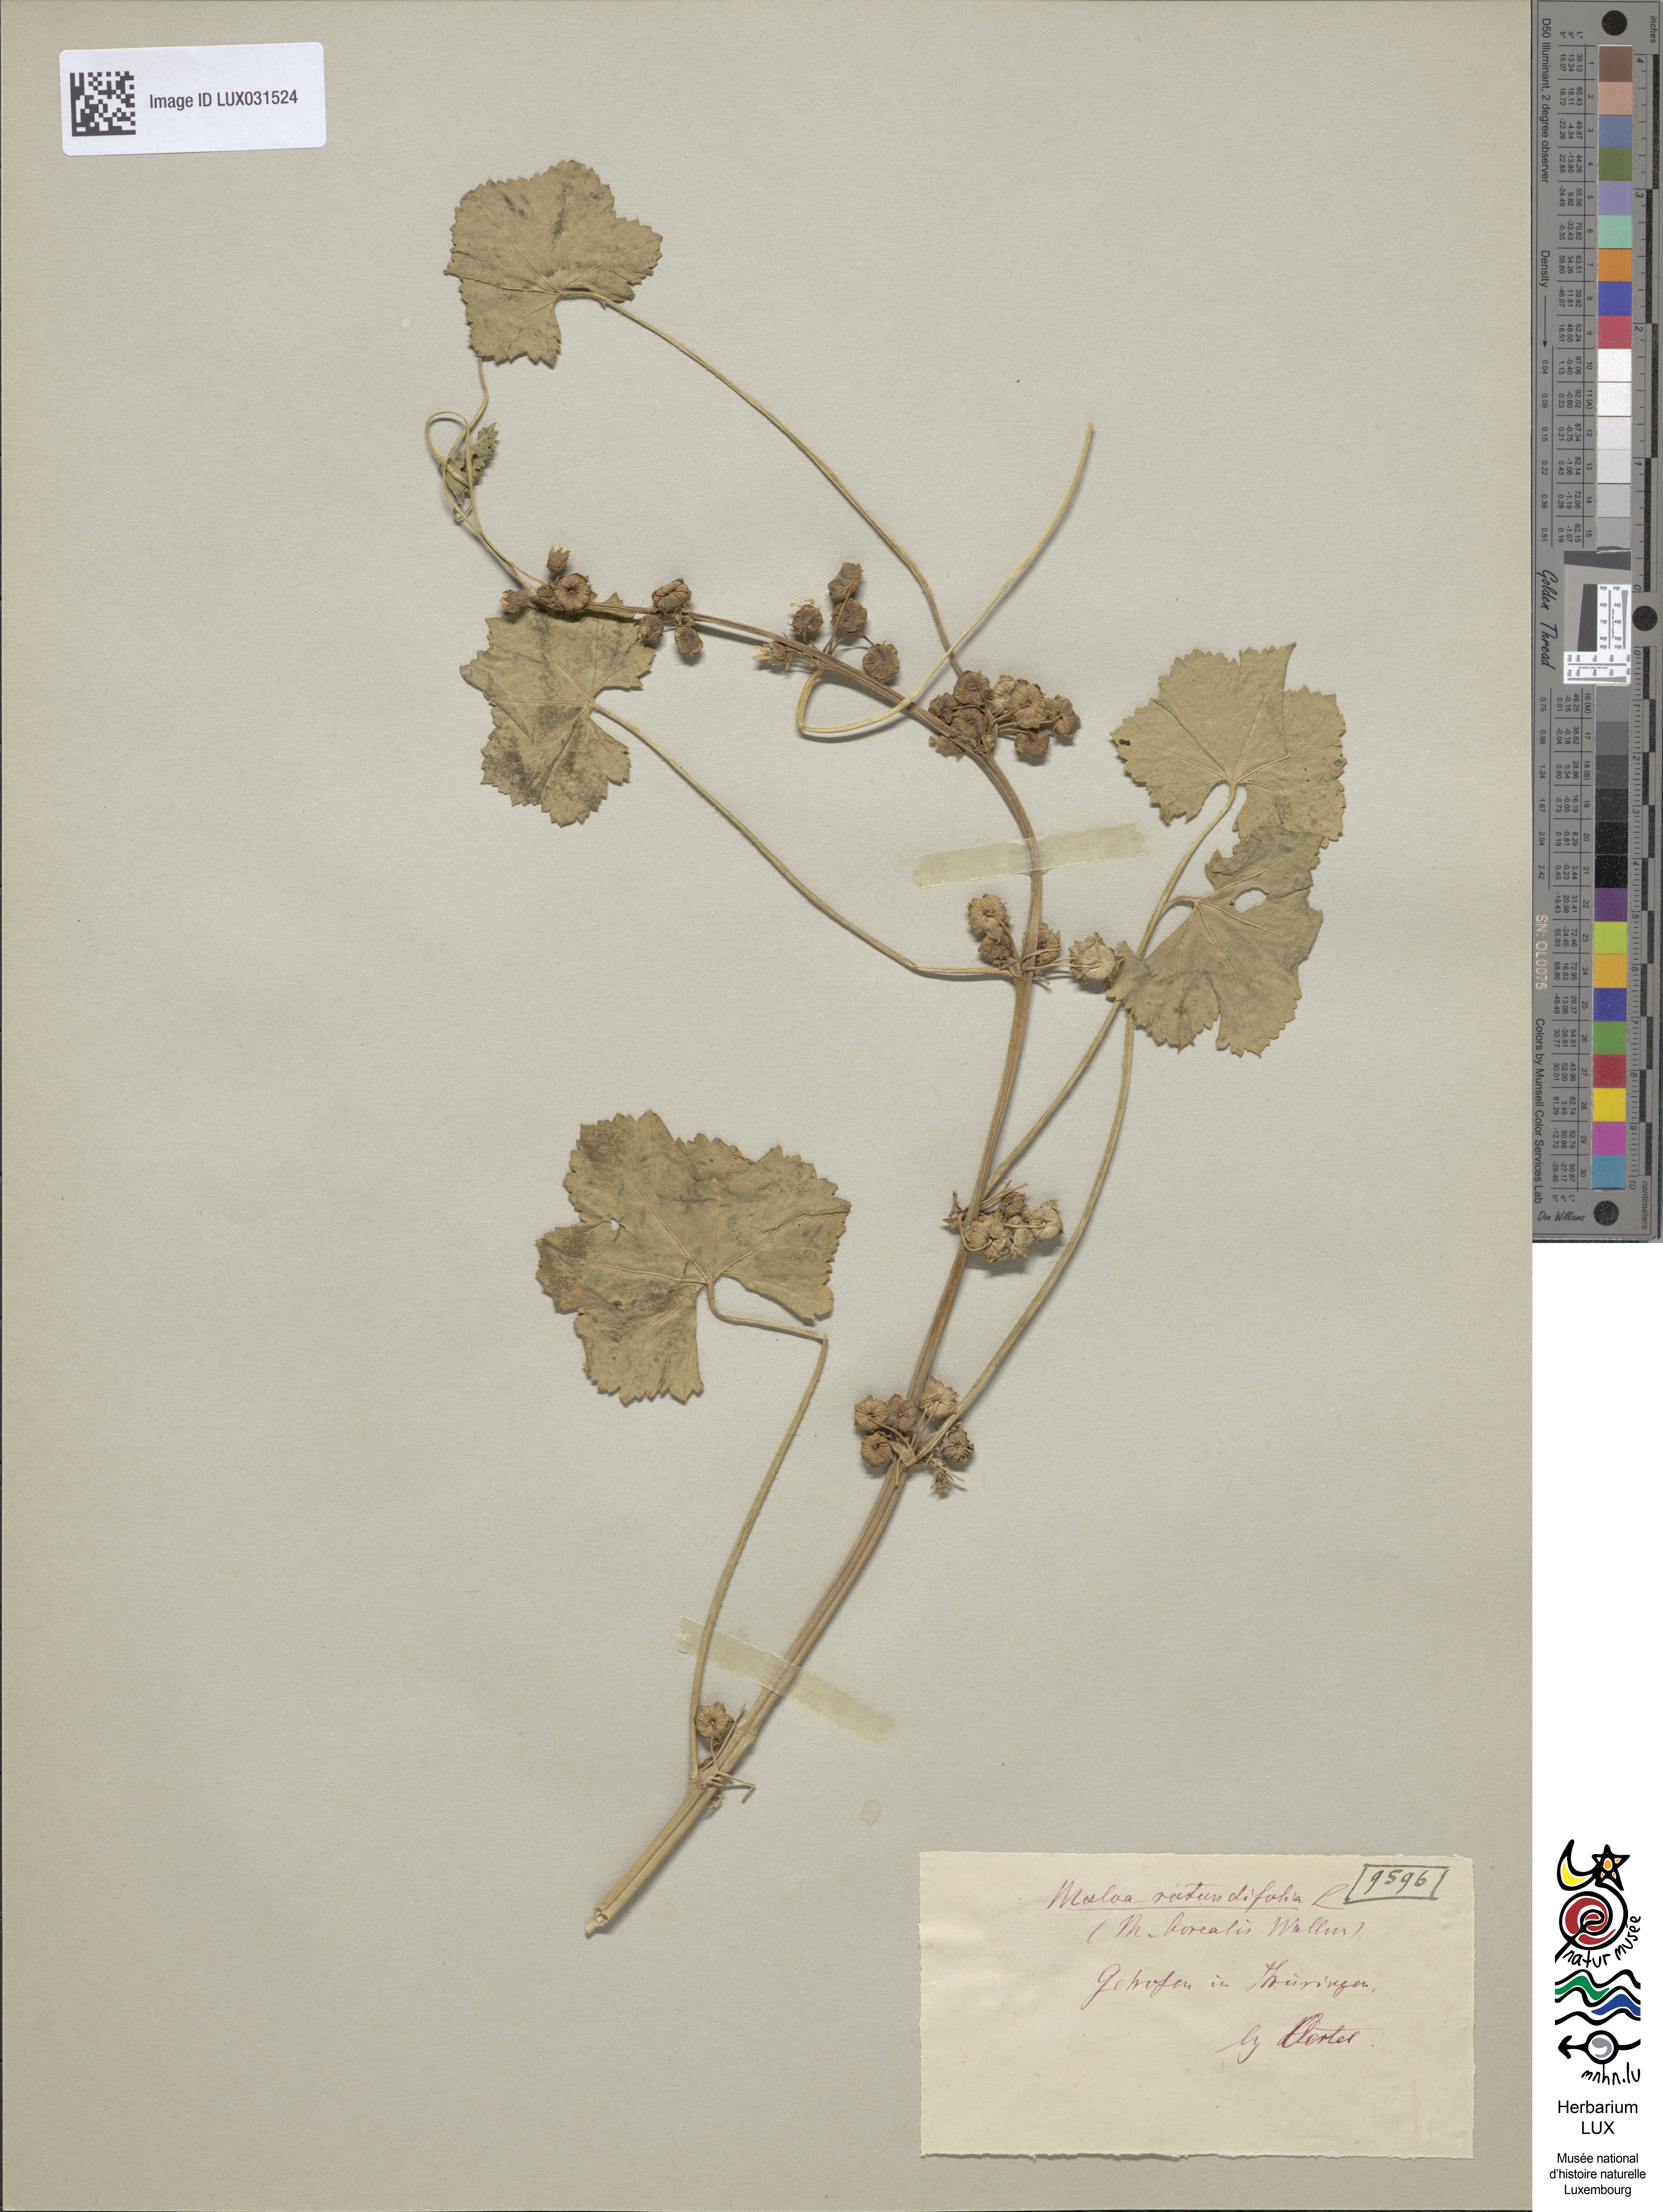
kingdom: Plantae
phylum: Tracheophyta
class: Magnoliopsida
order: Malvales
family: Malvaceae
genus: Malva
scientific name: Malva pusilla
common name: Small mallow
